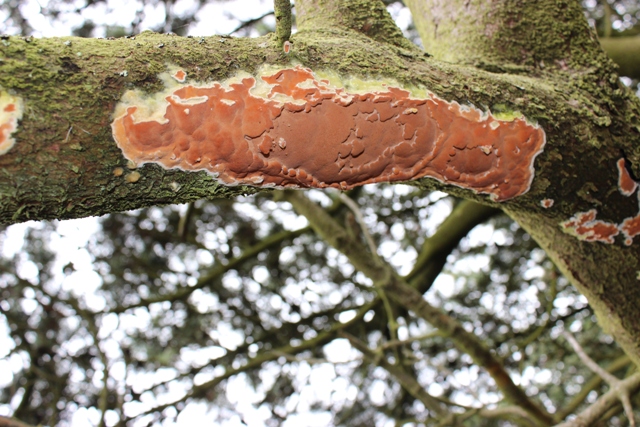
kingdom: Fungi
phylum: Basidiomycota
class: Agaricomycetes
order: Polyporales
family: Irpicaceae
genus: Meruliopsis
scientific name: Meruliopsis taxicola
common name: purpurbrun foldporesvamp
